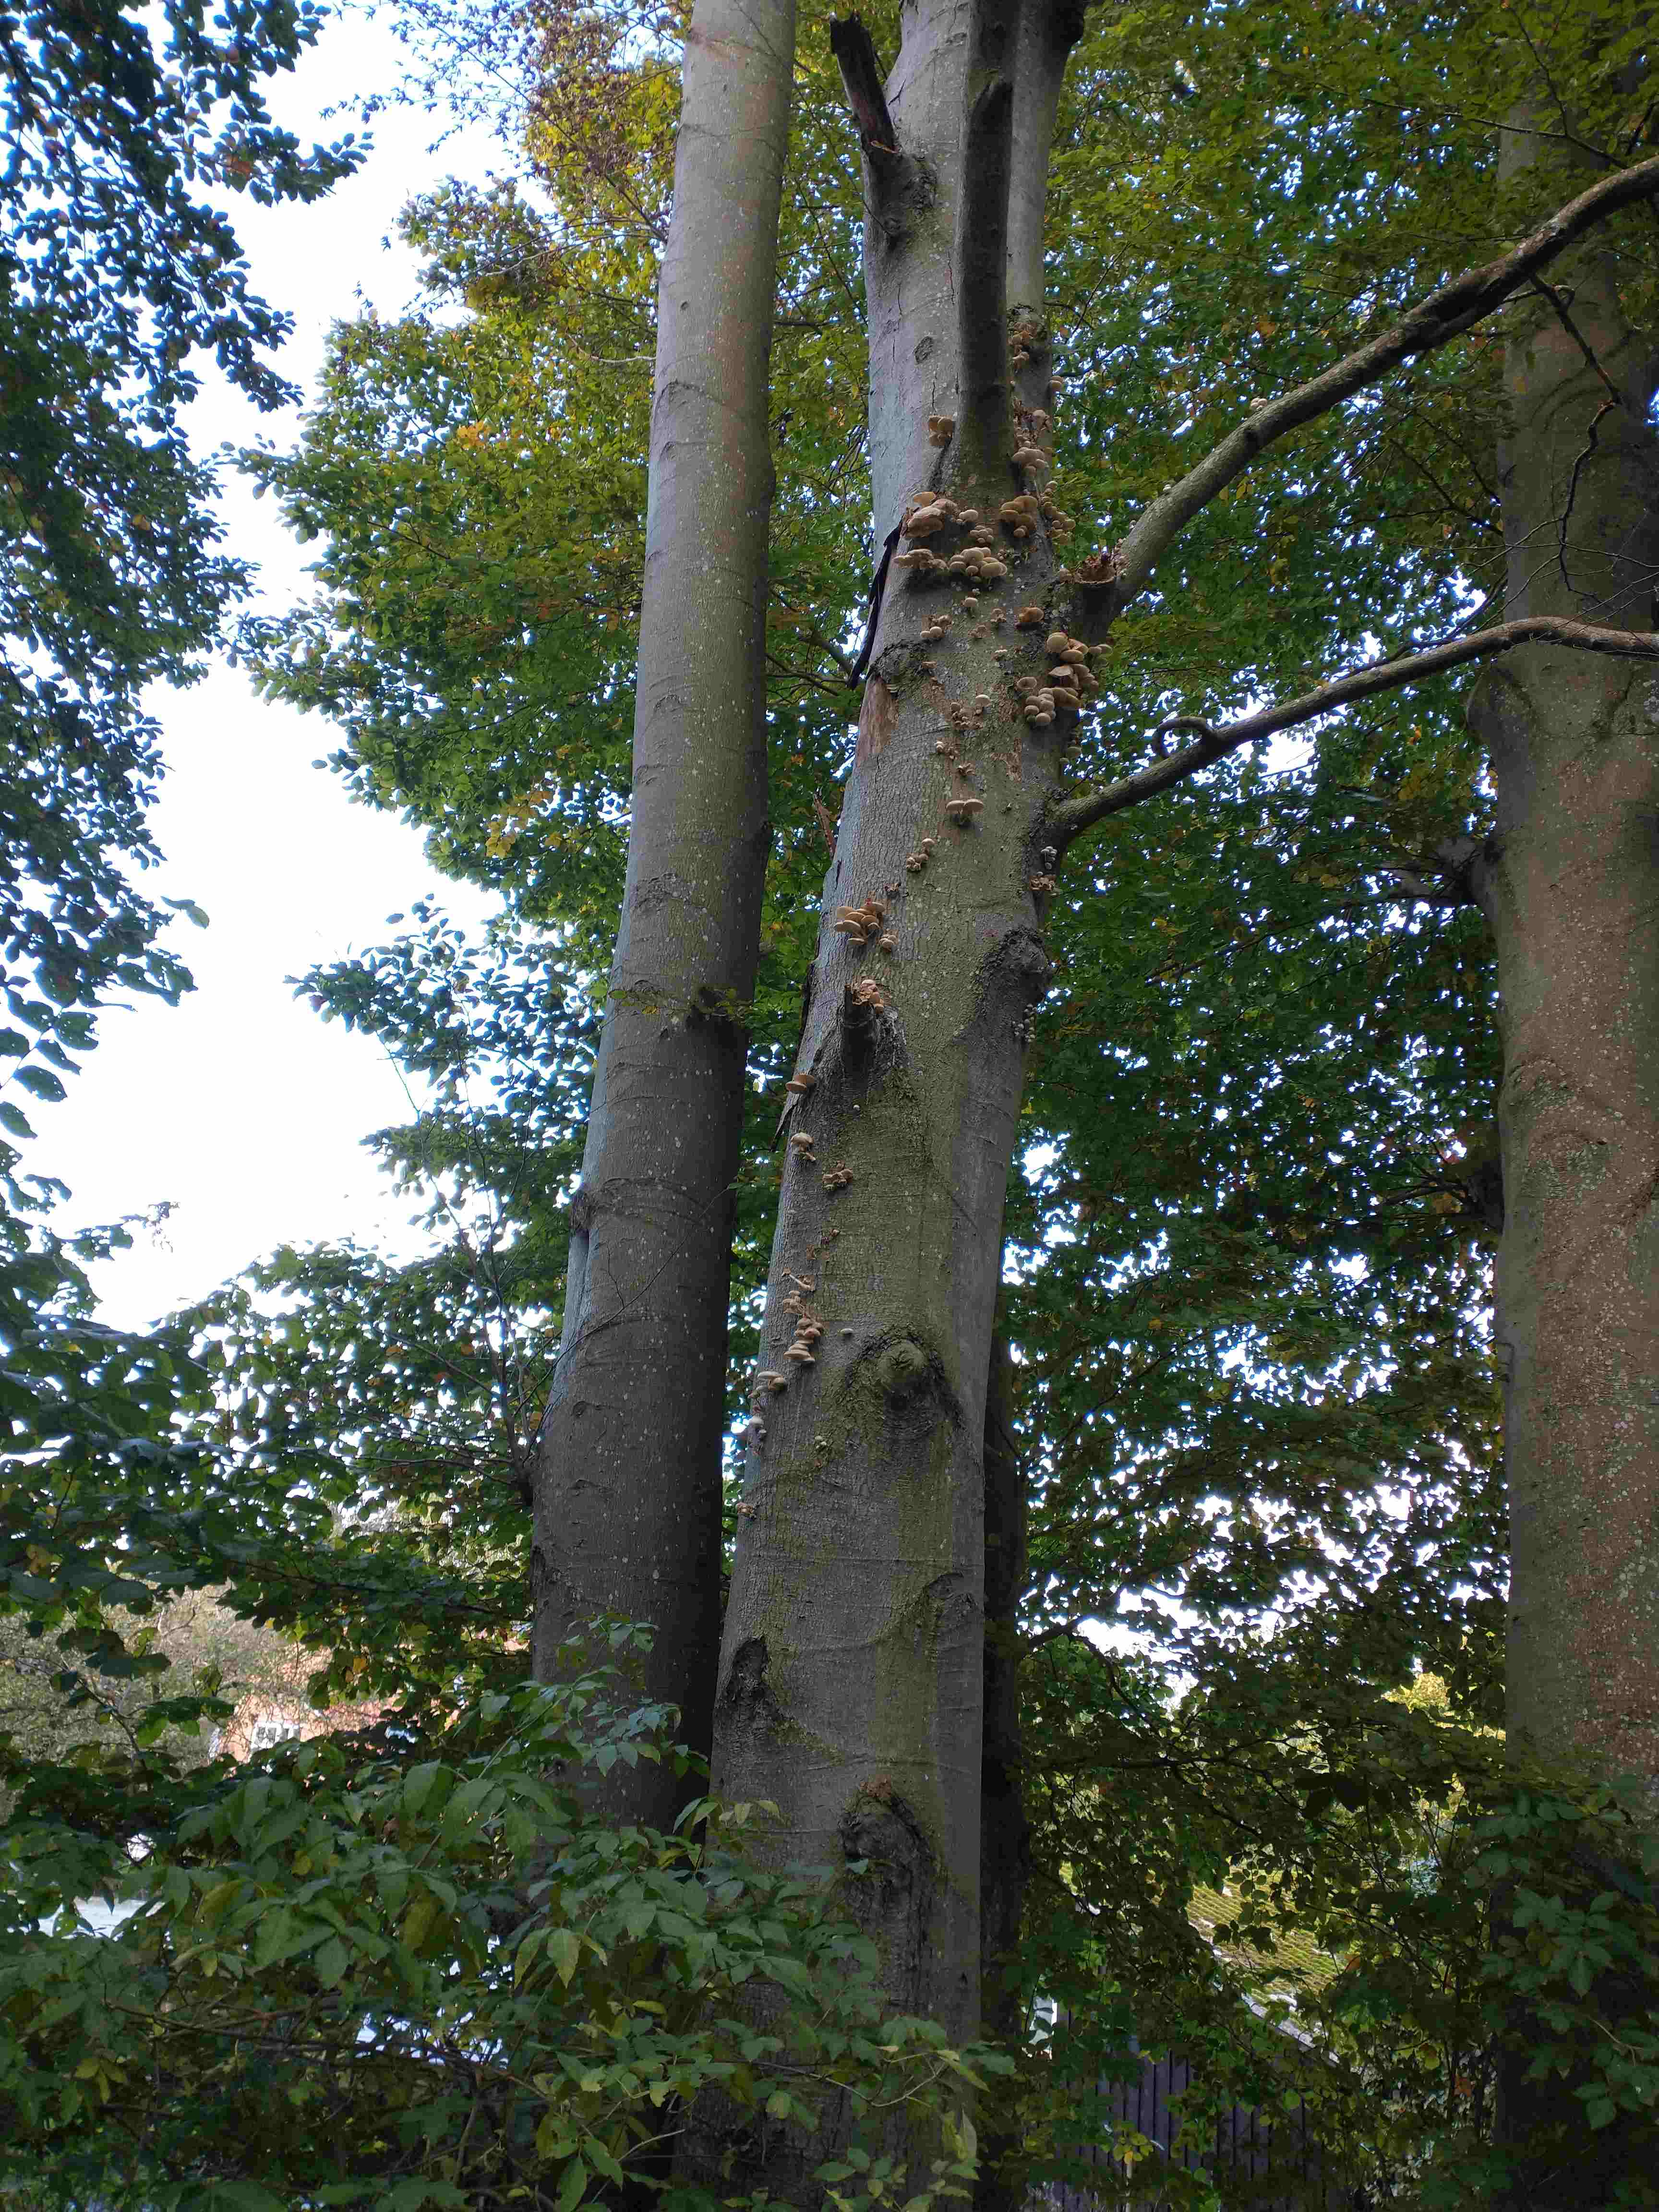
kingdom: Fungi
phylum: Basidiomycota
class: Agaricomycetes
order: Agaricales
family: Physalacriaceae
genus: Mucidula
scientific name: Mucidula mucida
